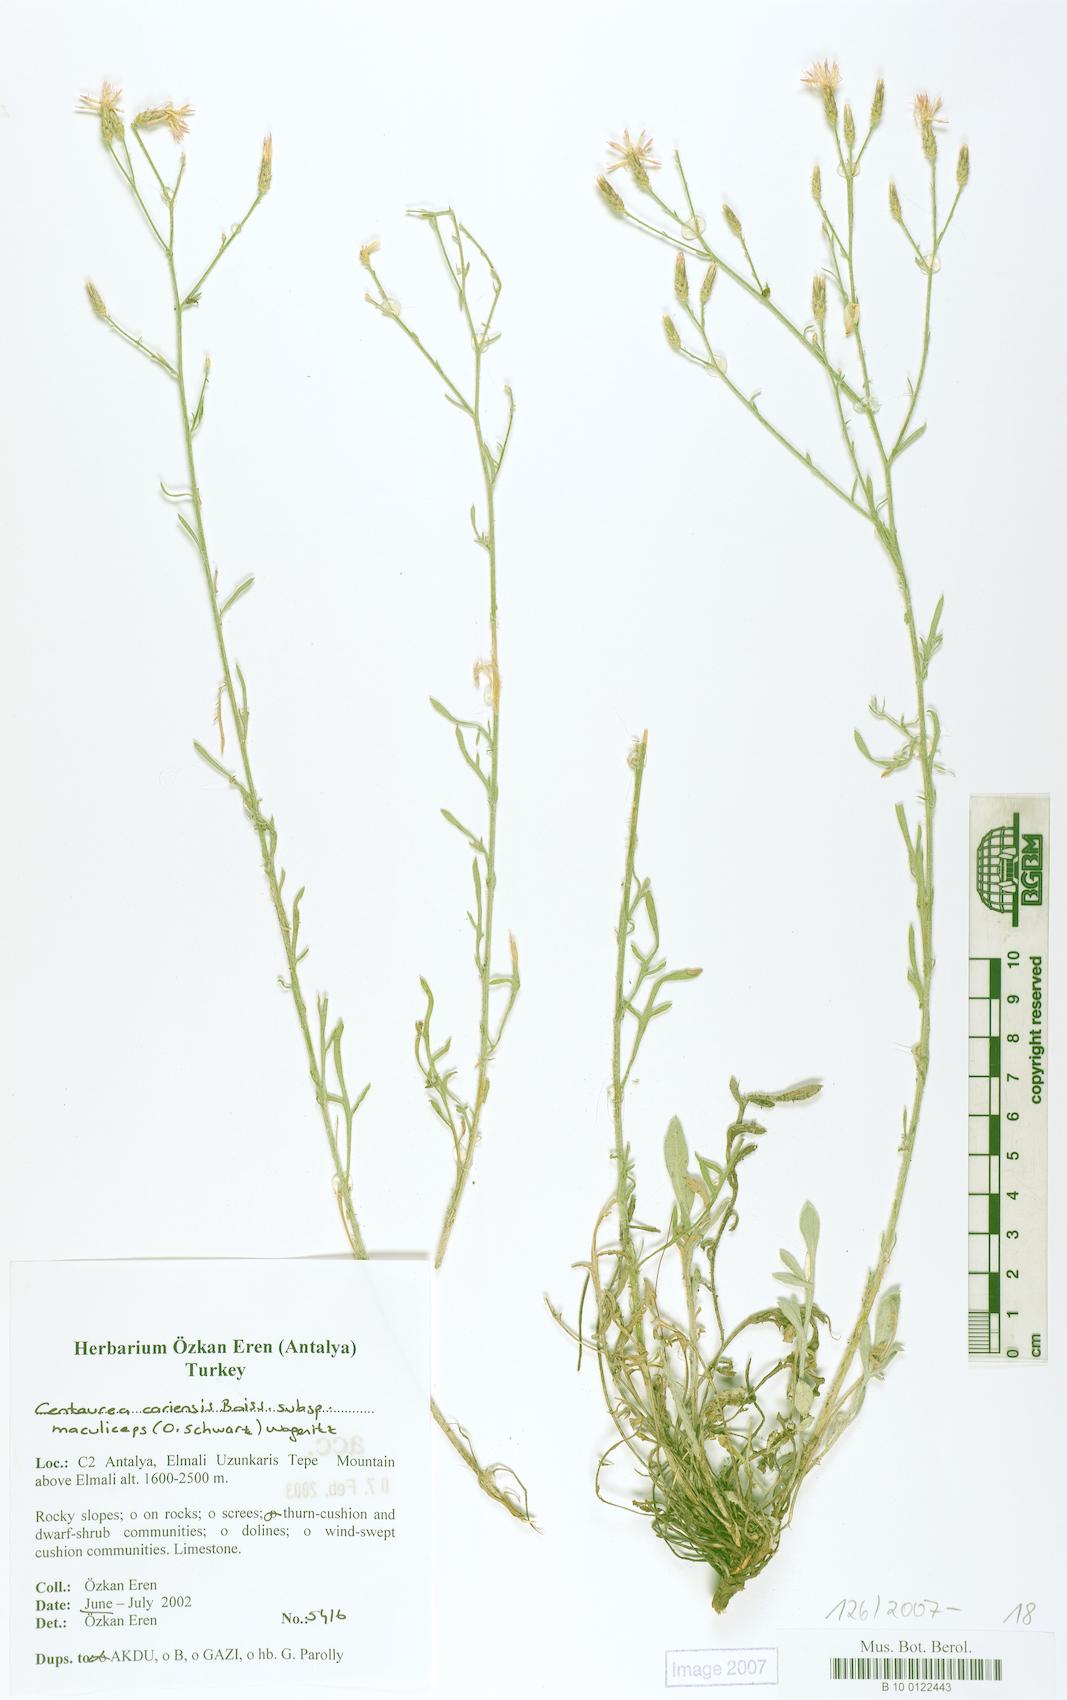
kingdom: Plantae
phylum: Tracheophyta
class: Magnoliopsida
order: Asterales
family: Asteraceae
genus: Centaurea
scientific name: Centaurea cariensis
